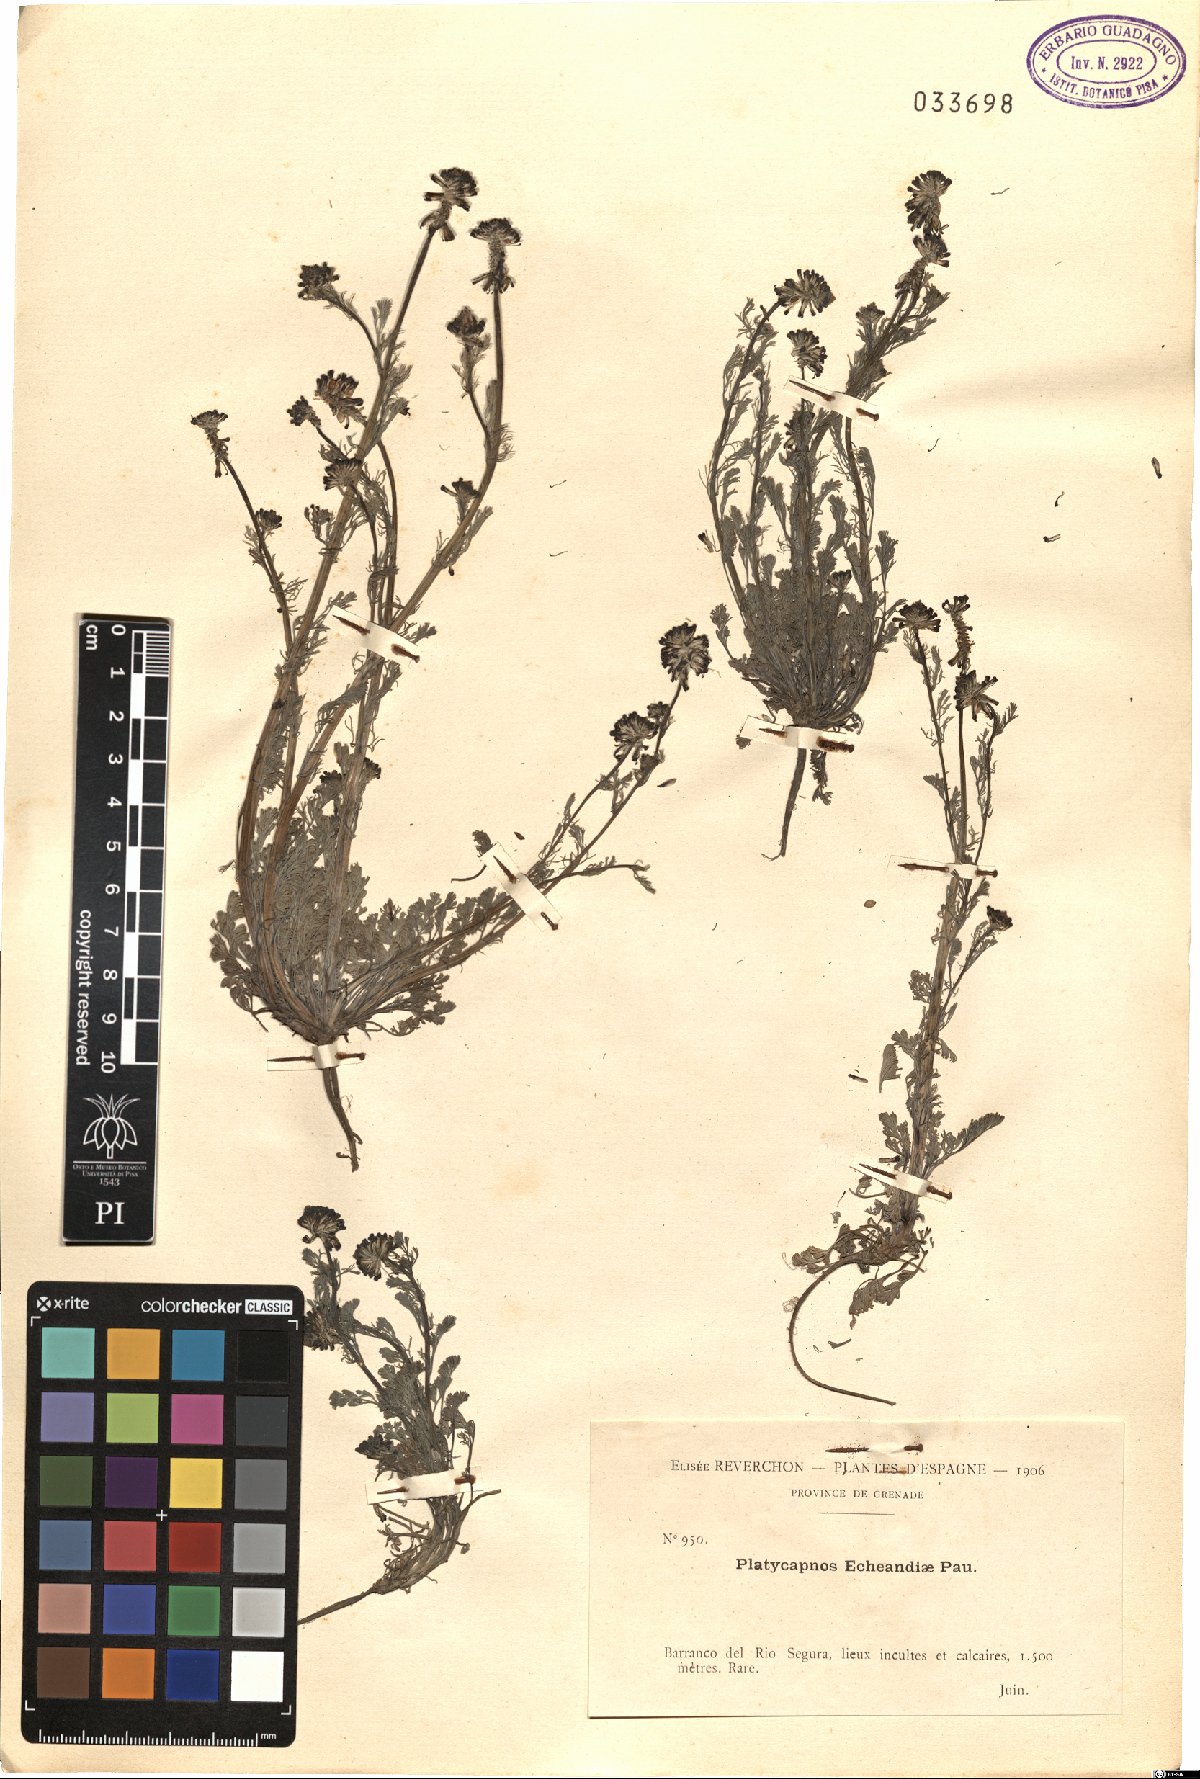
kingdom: Plantae
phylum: Tracheophyta
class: Magnoliopsida
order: Ranunculales
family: Papaveraceae
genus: Platycapnos
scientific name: Platycapnos spicata
